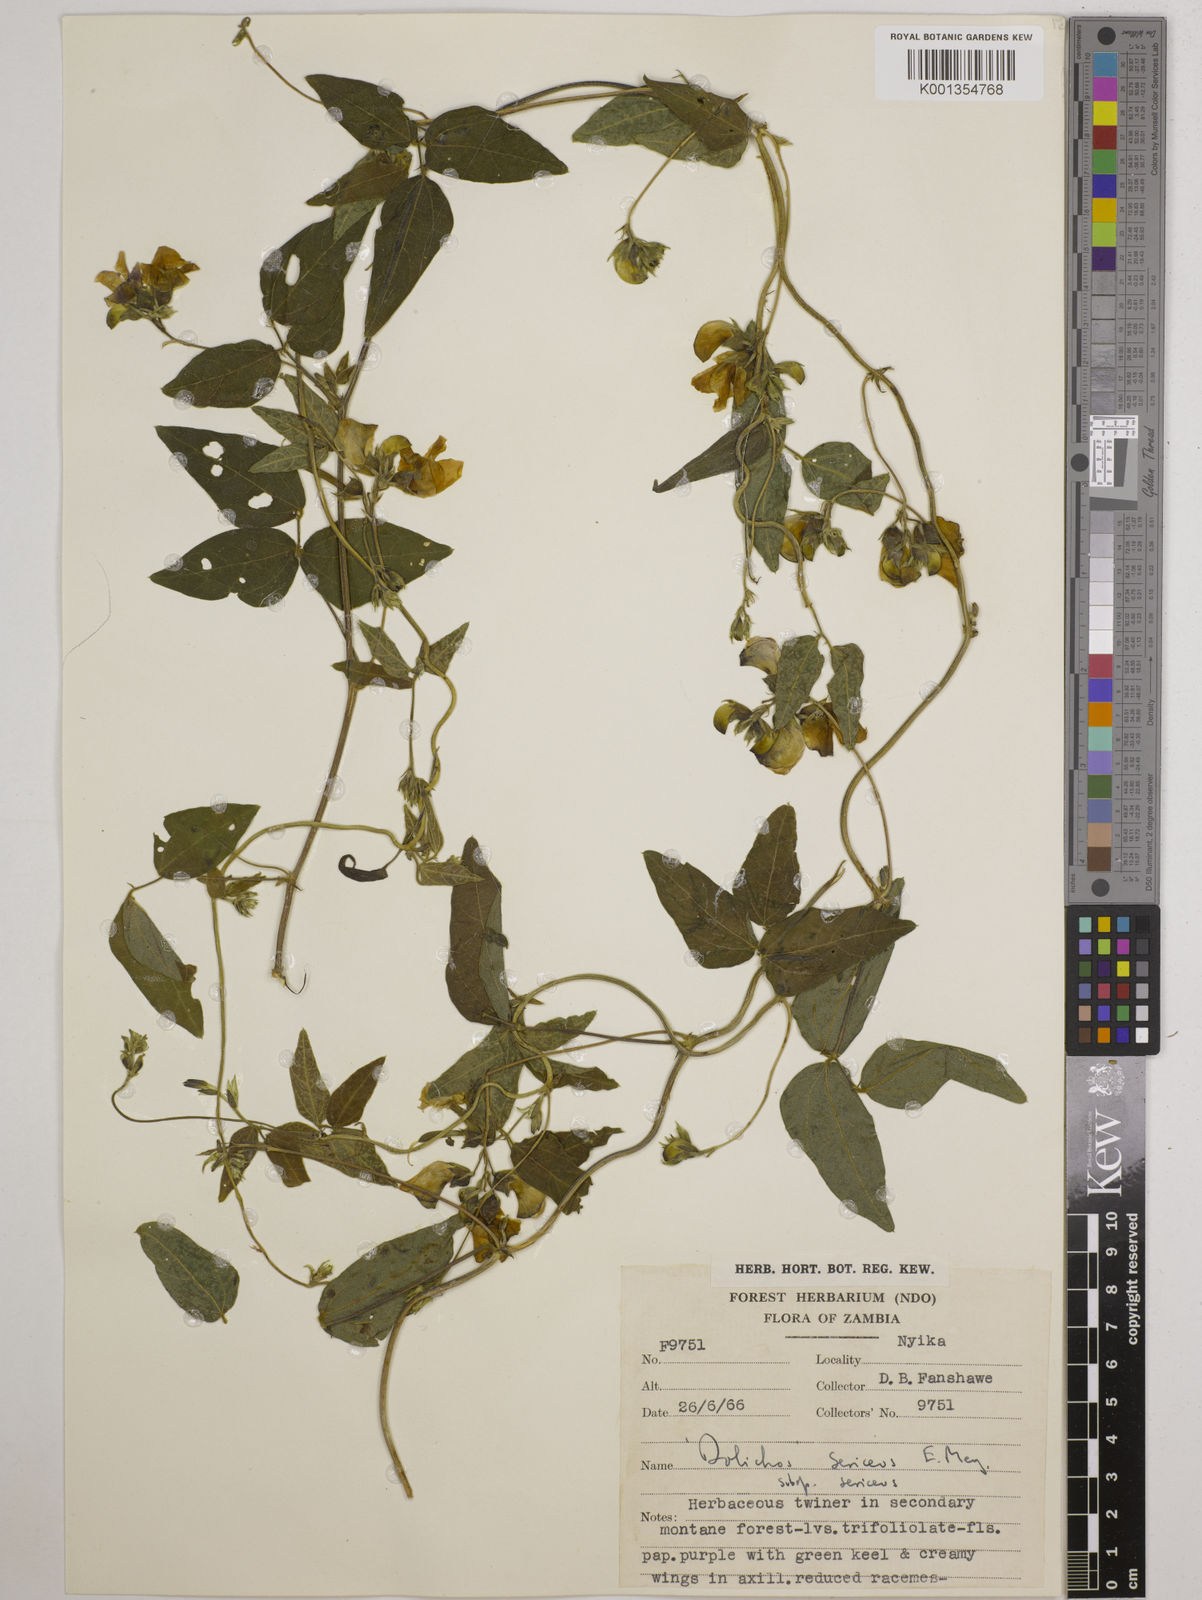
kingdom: Plantae
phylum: Tracheophyta
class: Magnoliopsida
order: Fabales
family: Fabaceae
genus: Dolichos
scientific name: Dolichos
